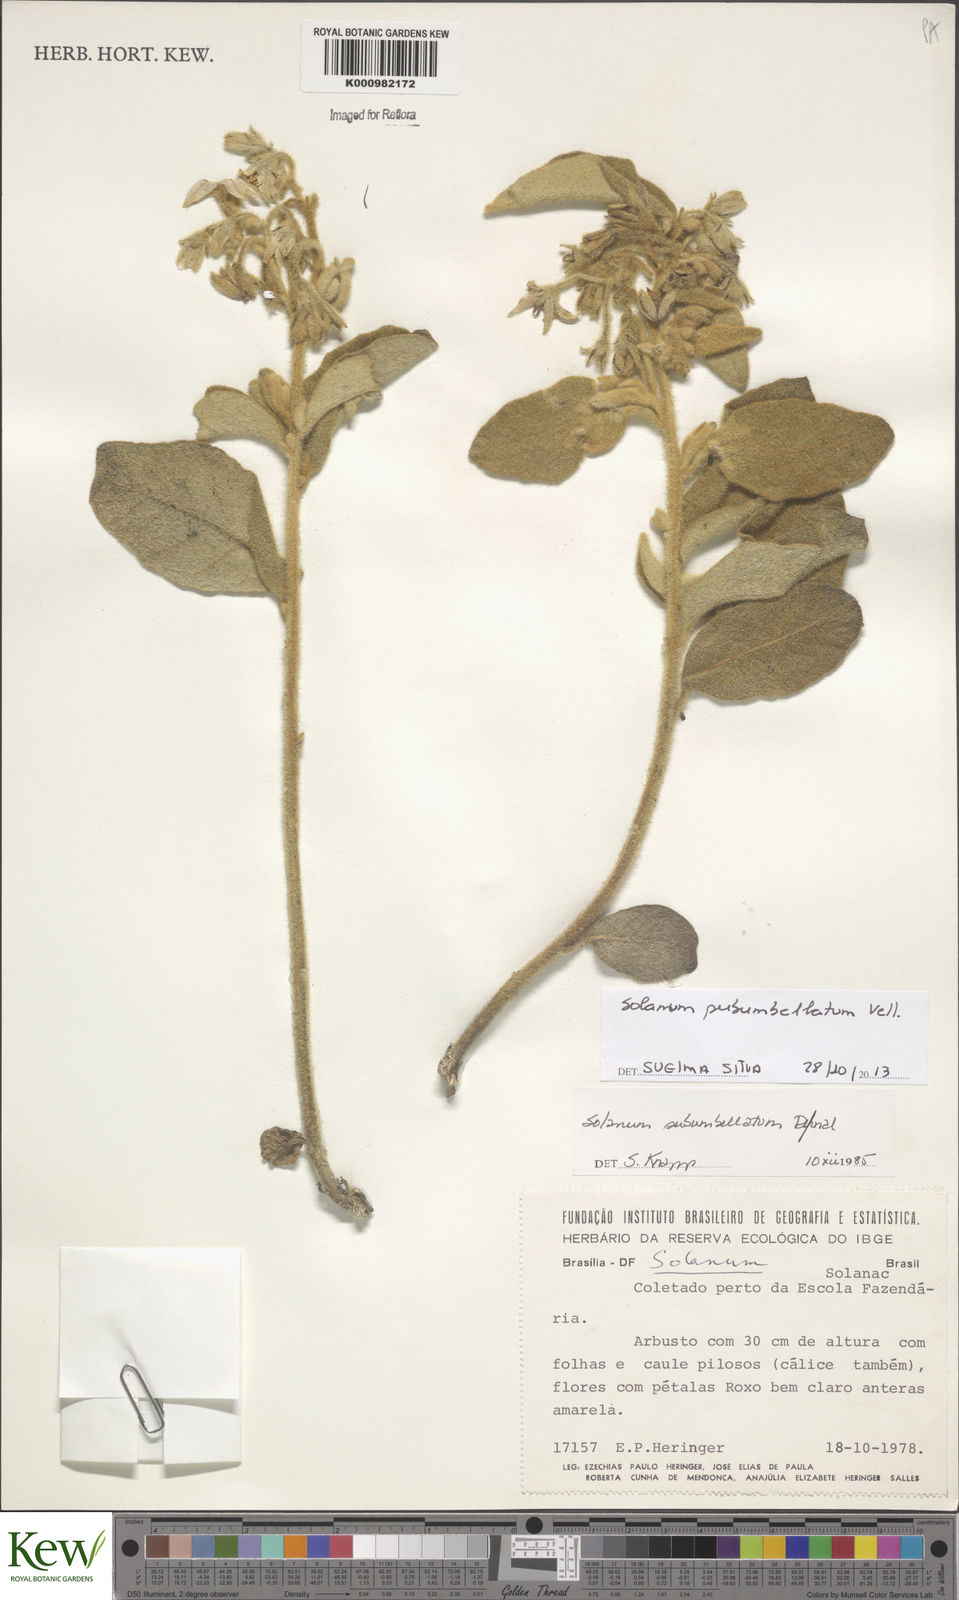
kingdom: Plantae
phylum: Tracheophyta
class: Magnoliopsida
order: Solanales
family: Solanaceae
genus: Solanum
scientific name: Solanum subumbellatum
